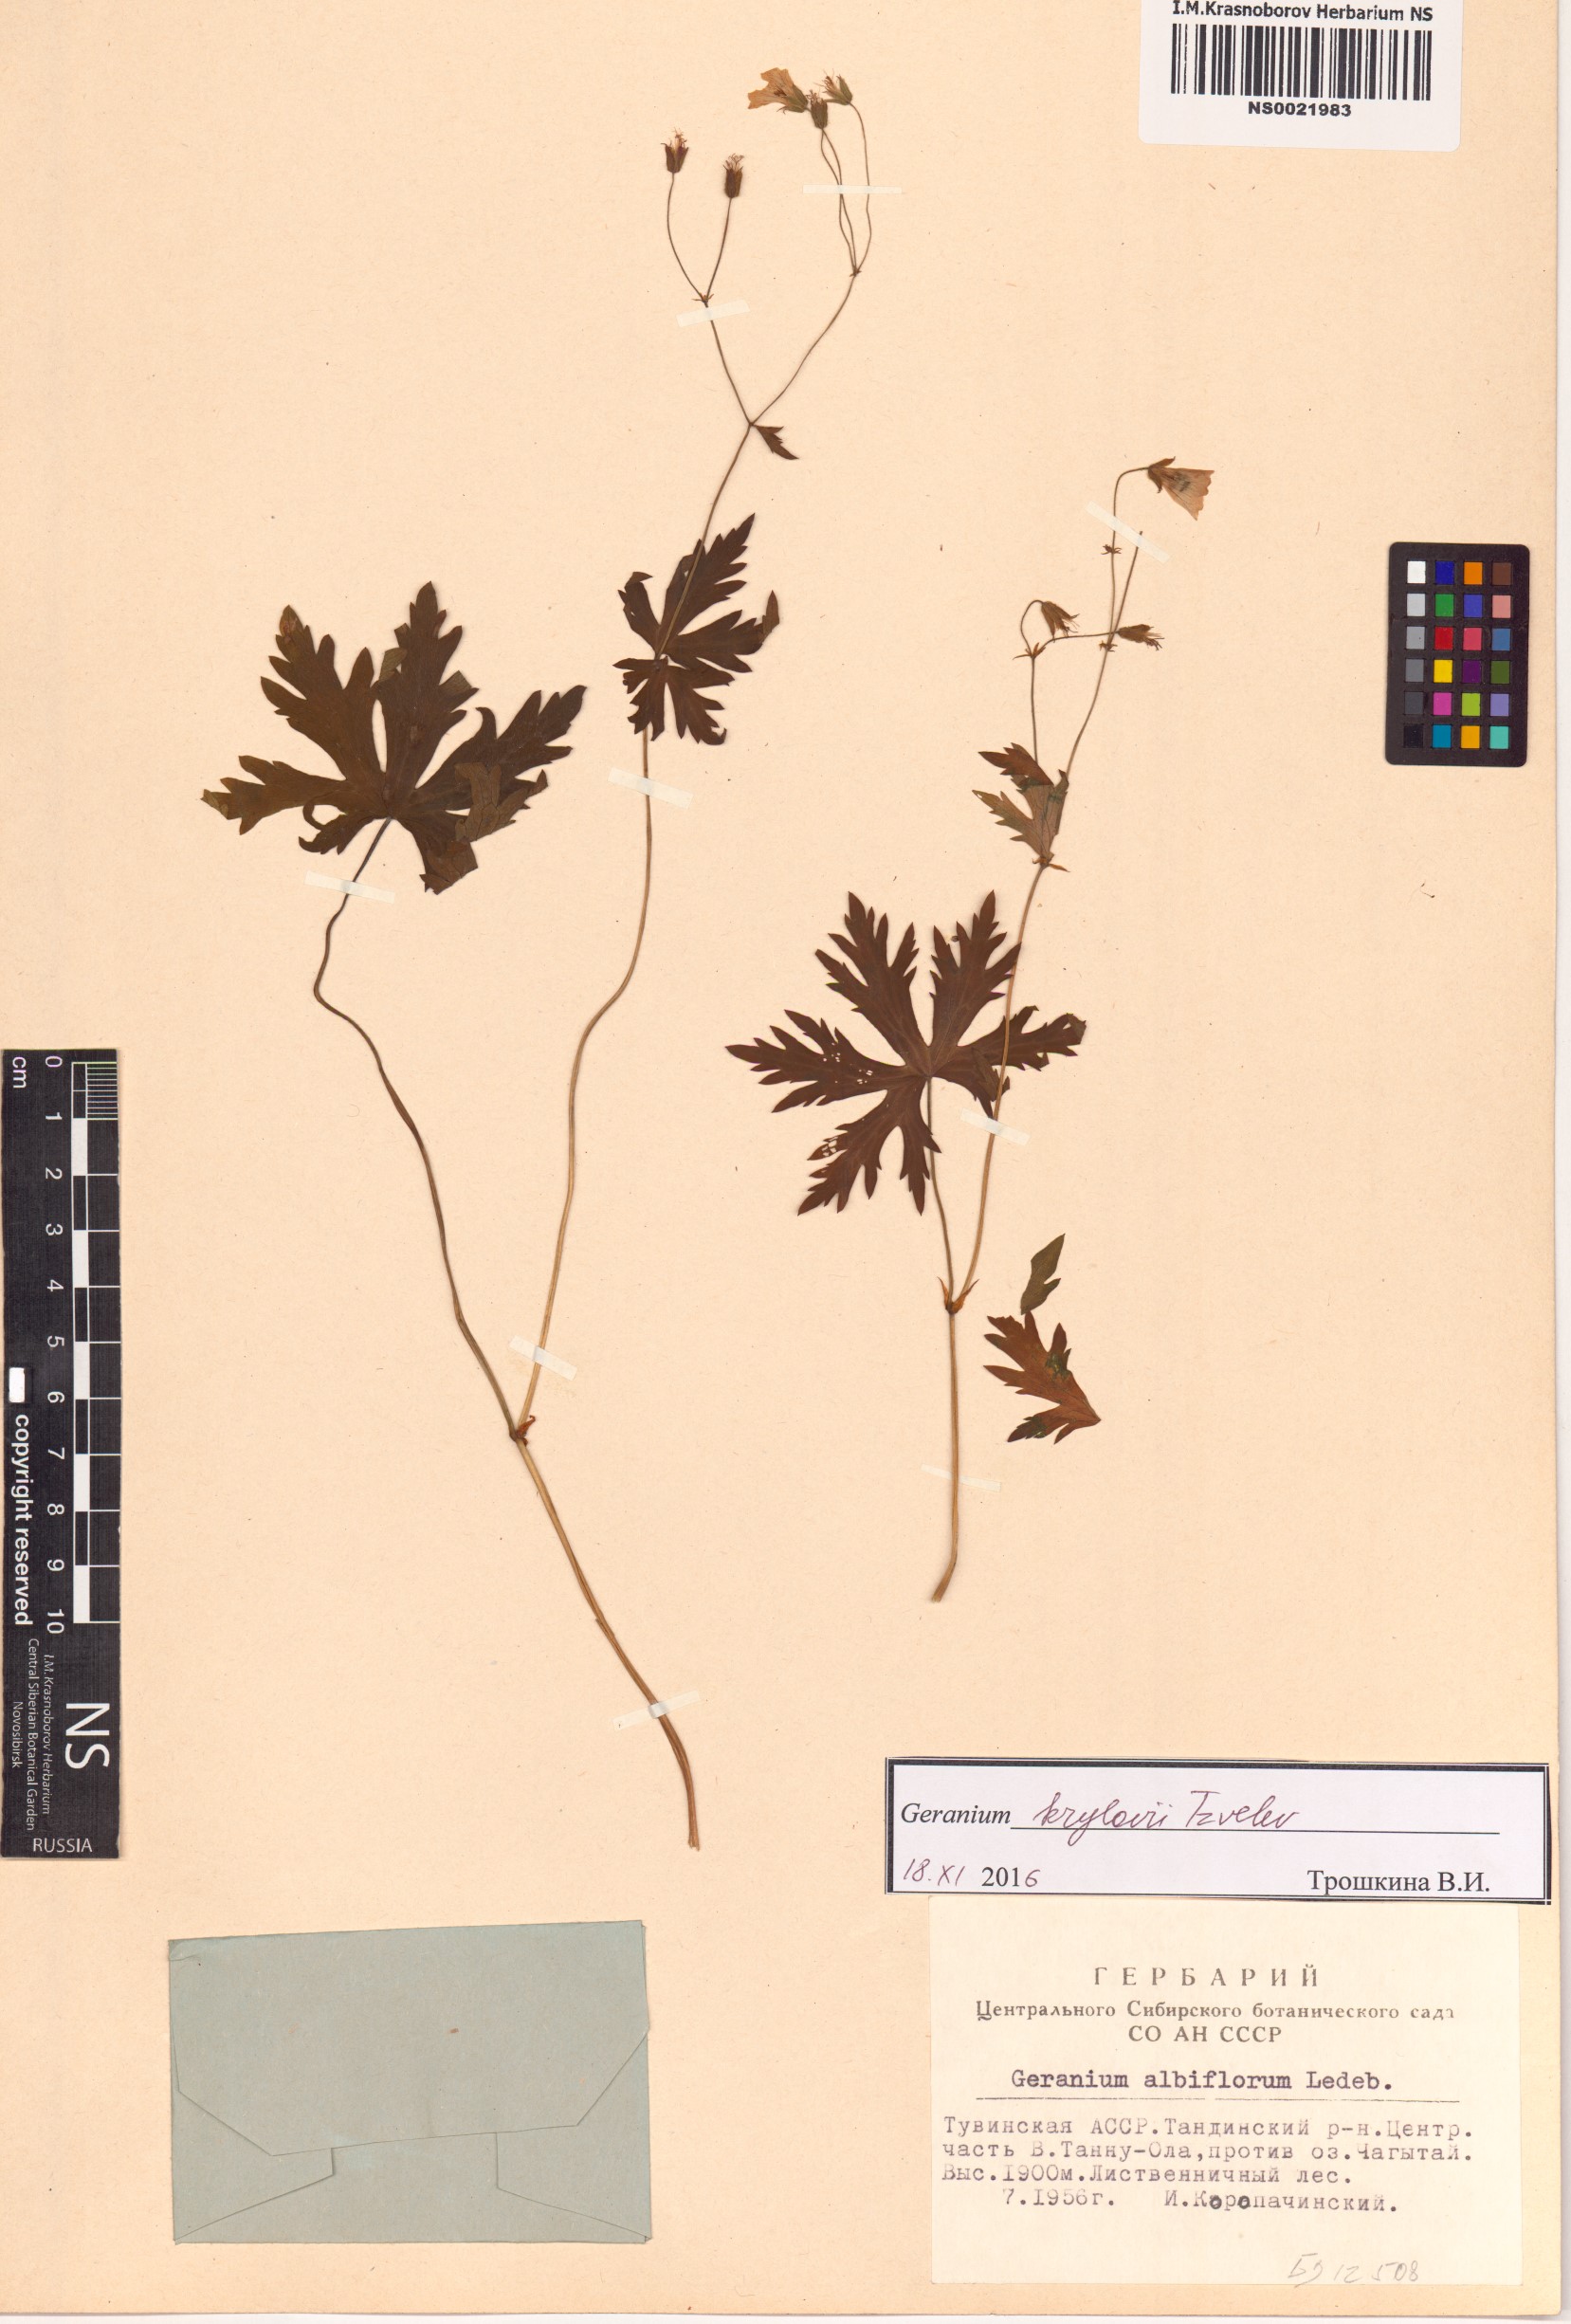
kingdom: Plantae
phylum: Tracheophyta
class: Magnoliopsida
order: Geraniales
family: Geraniaceae
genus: Geranium
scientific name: Geranium sylvaticum
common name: Wood crane's-bill
